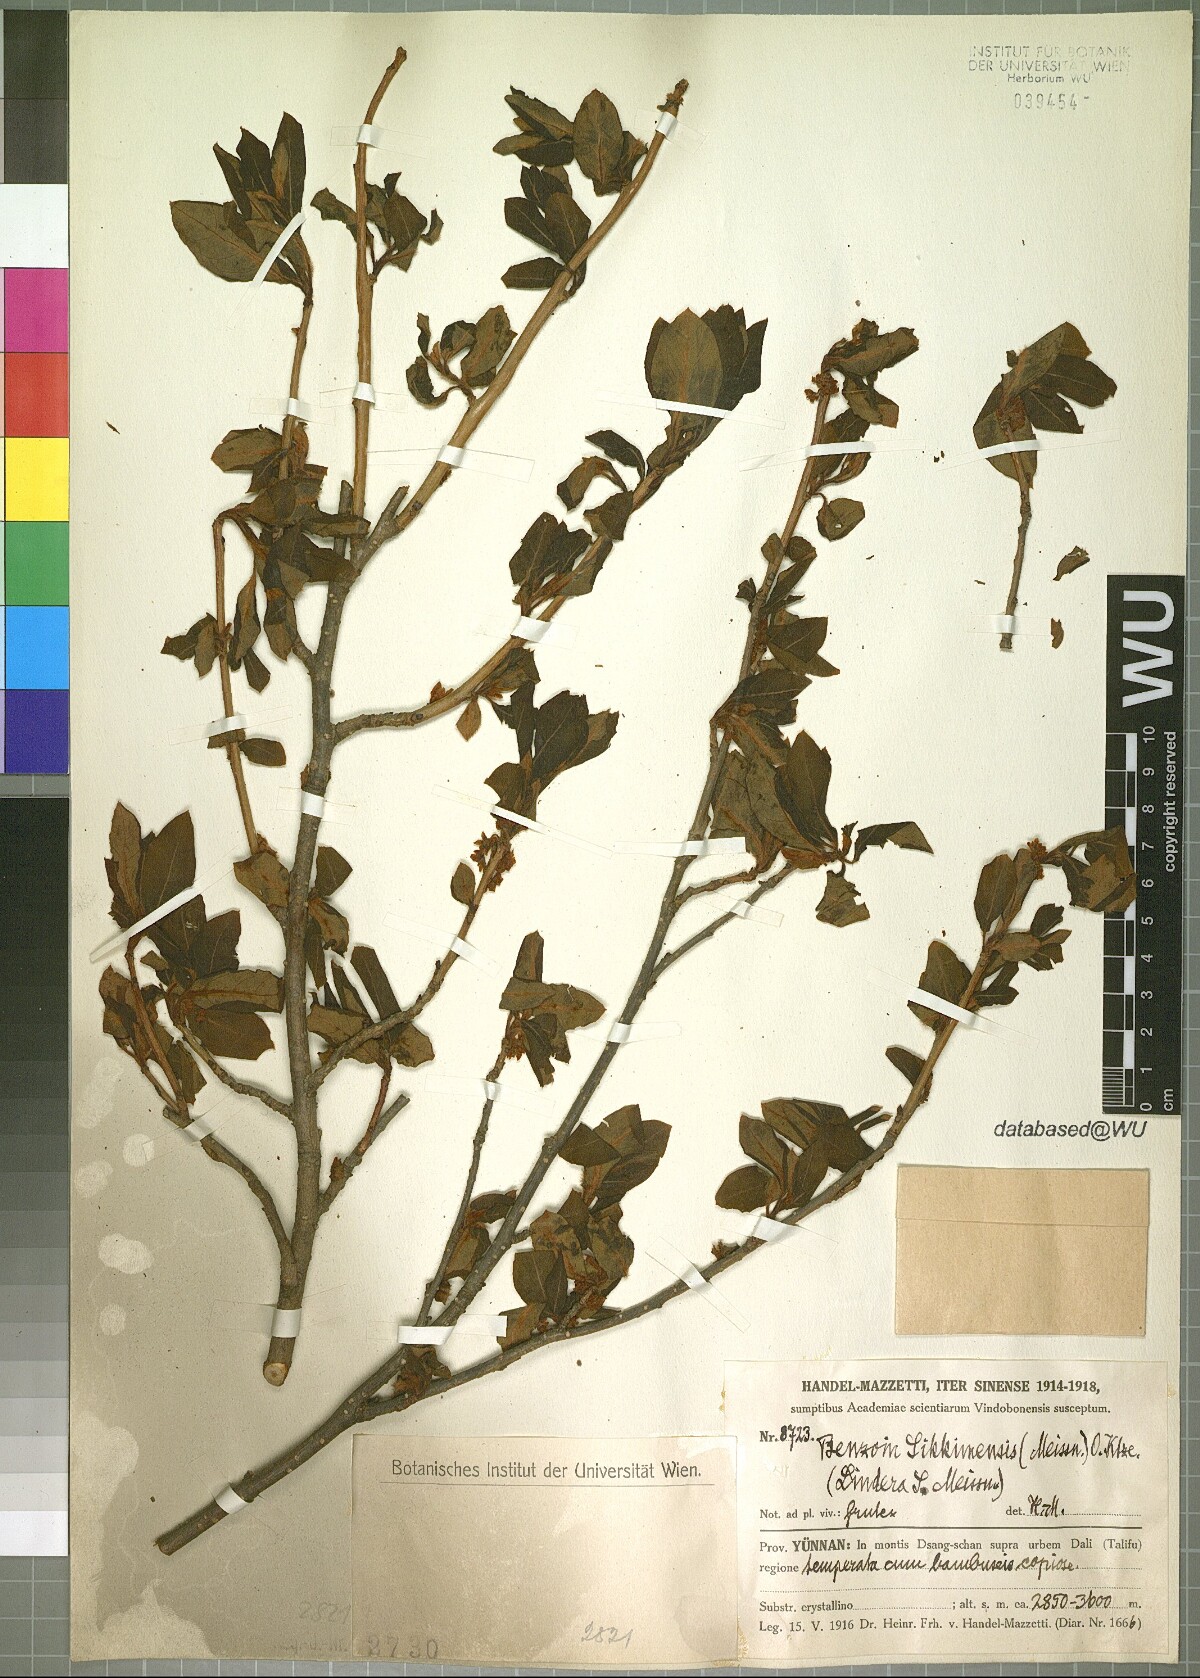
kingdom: Plantae
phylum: Tracheophyta
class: Magnoliopsida
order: Laurales
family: Lauraceae
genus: Litsea
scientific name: Litsea sericea
